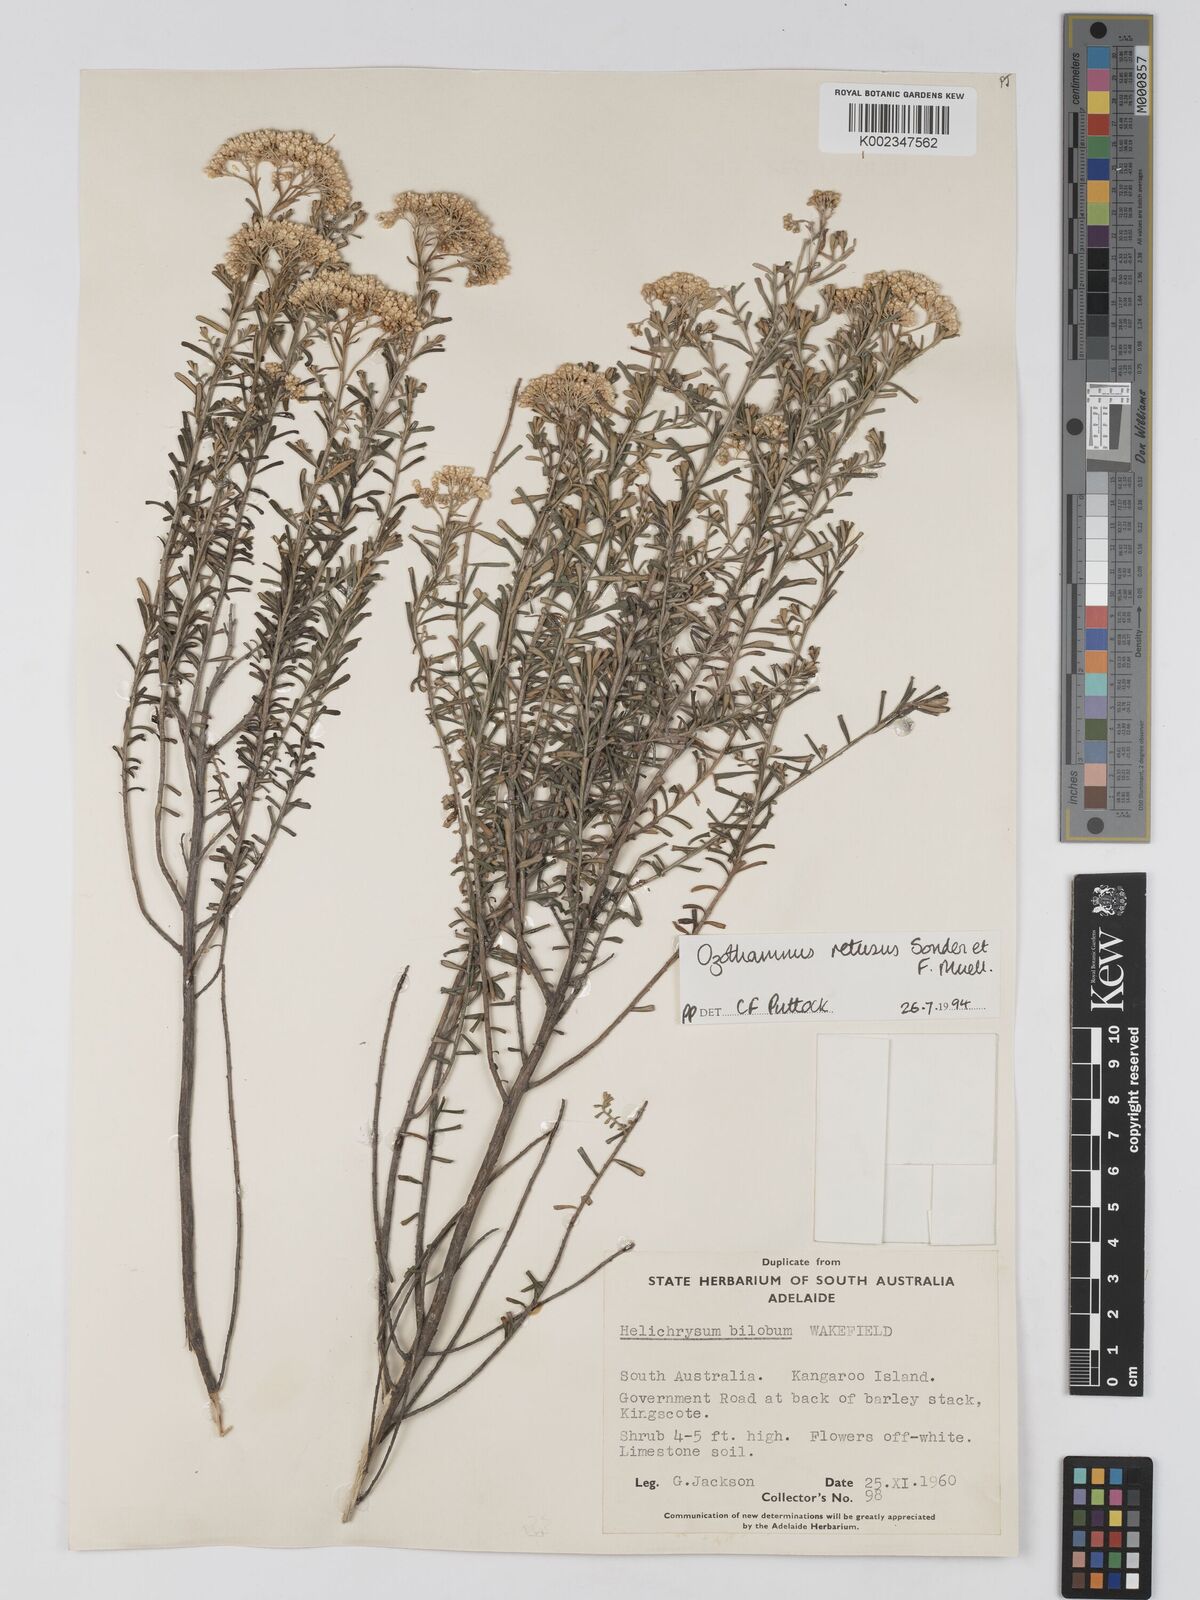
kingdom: Plantae
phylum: Tracheophyta
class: Magnoliopsida
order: Asterales
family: Asteraceae
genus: Ozothamnus
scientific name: Ozothamnus adnatus
